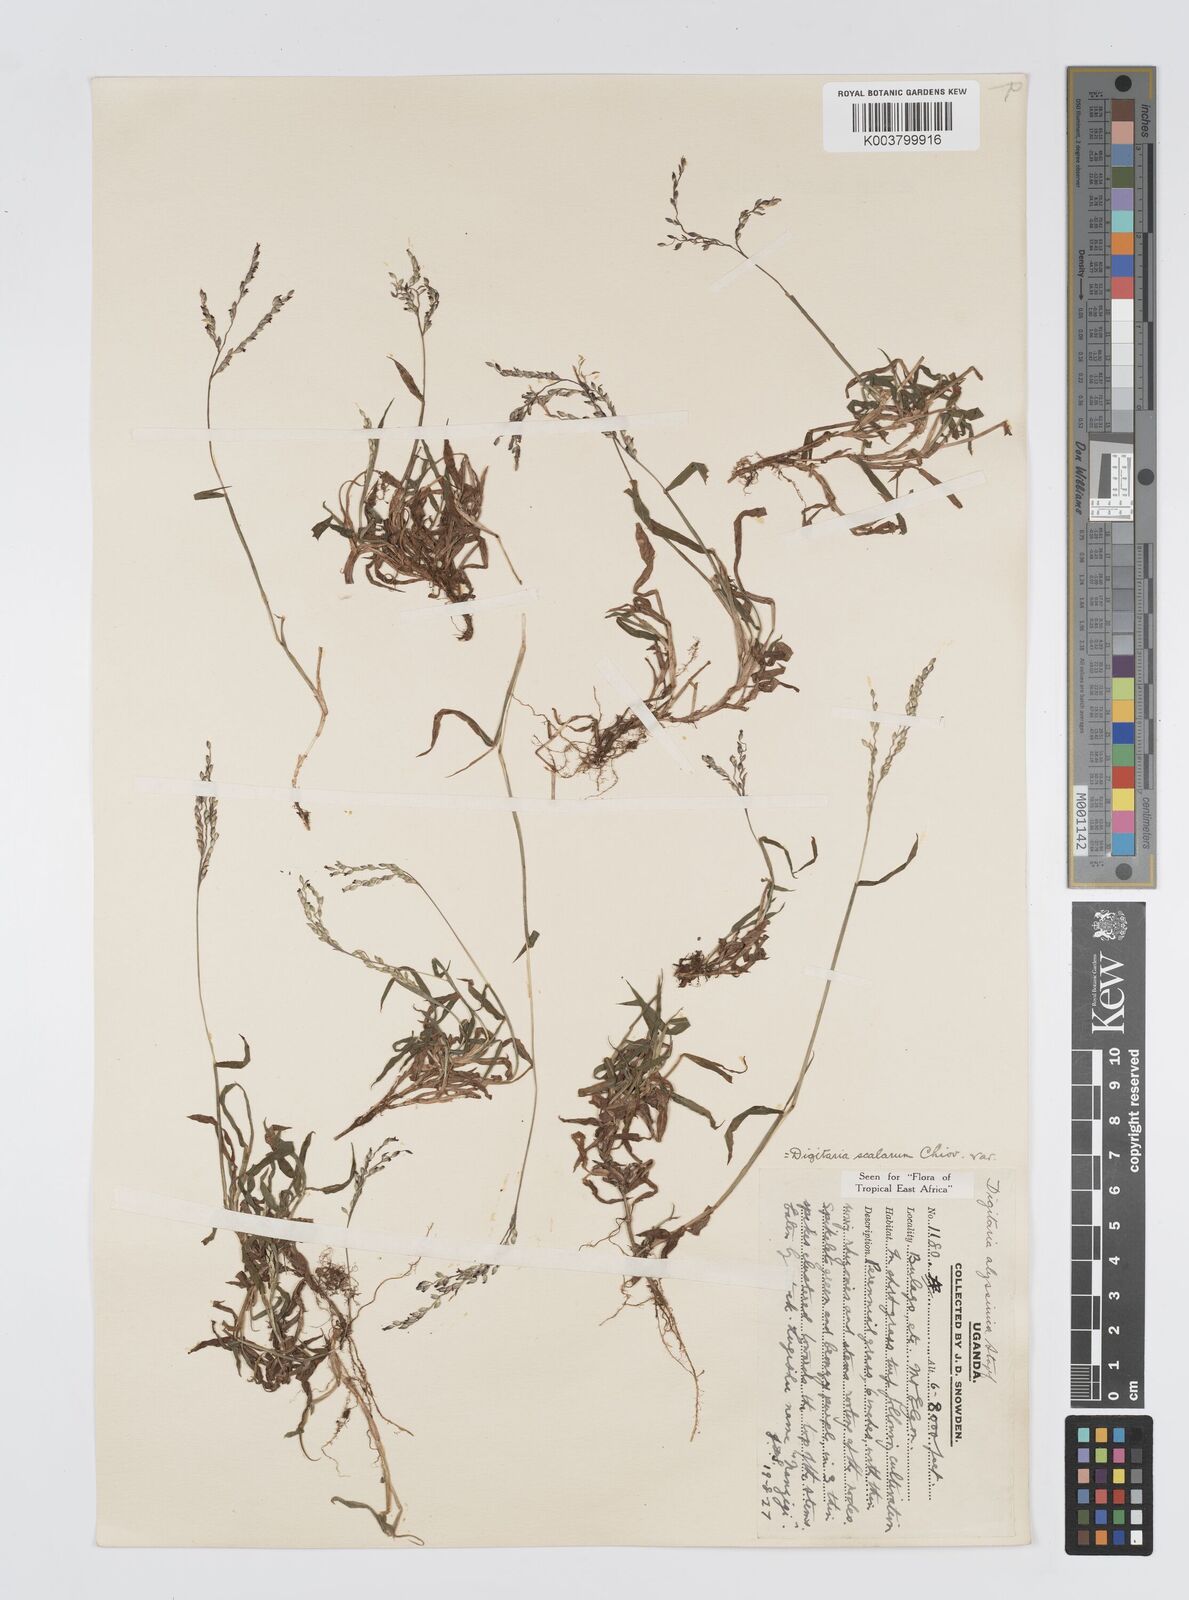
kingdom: Plantae
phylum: Tracheophyta
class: Liliopsida
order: Poales
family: Poaceae
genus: Digitaria
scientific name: Digitaria abyssinica
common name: African couchgrass
